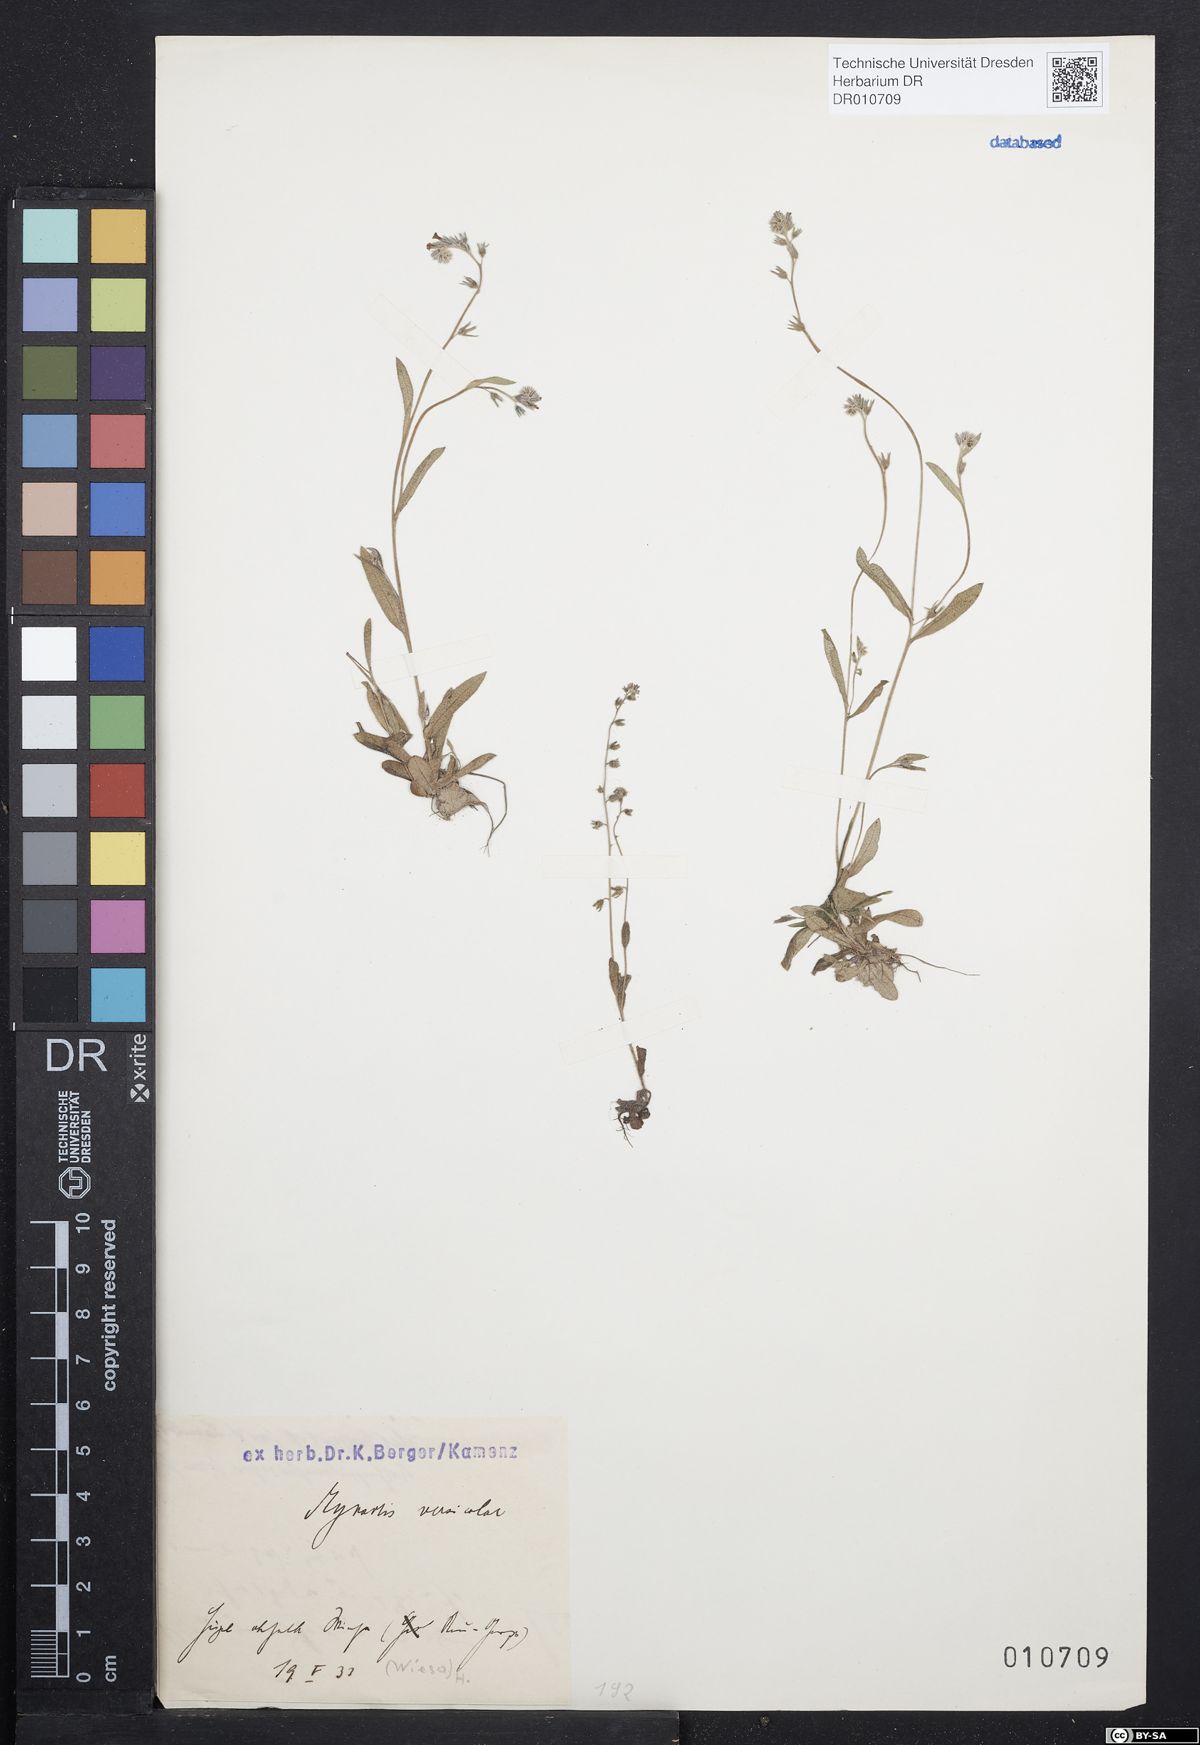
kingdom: Plantae
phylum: Tracheophyta
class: Magnoliopsida
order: Boraginales
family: Boraginaceae
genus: Myosotis
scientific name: Myosotis discolor
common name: Changing forget-me-not
